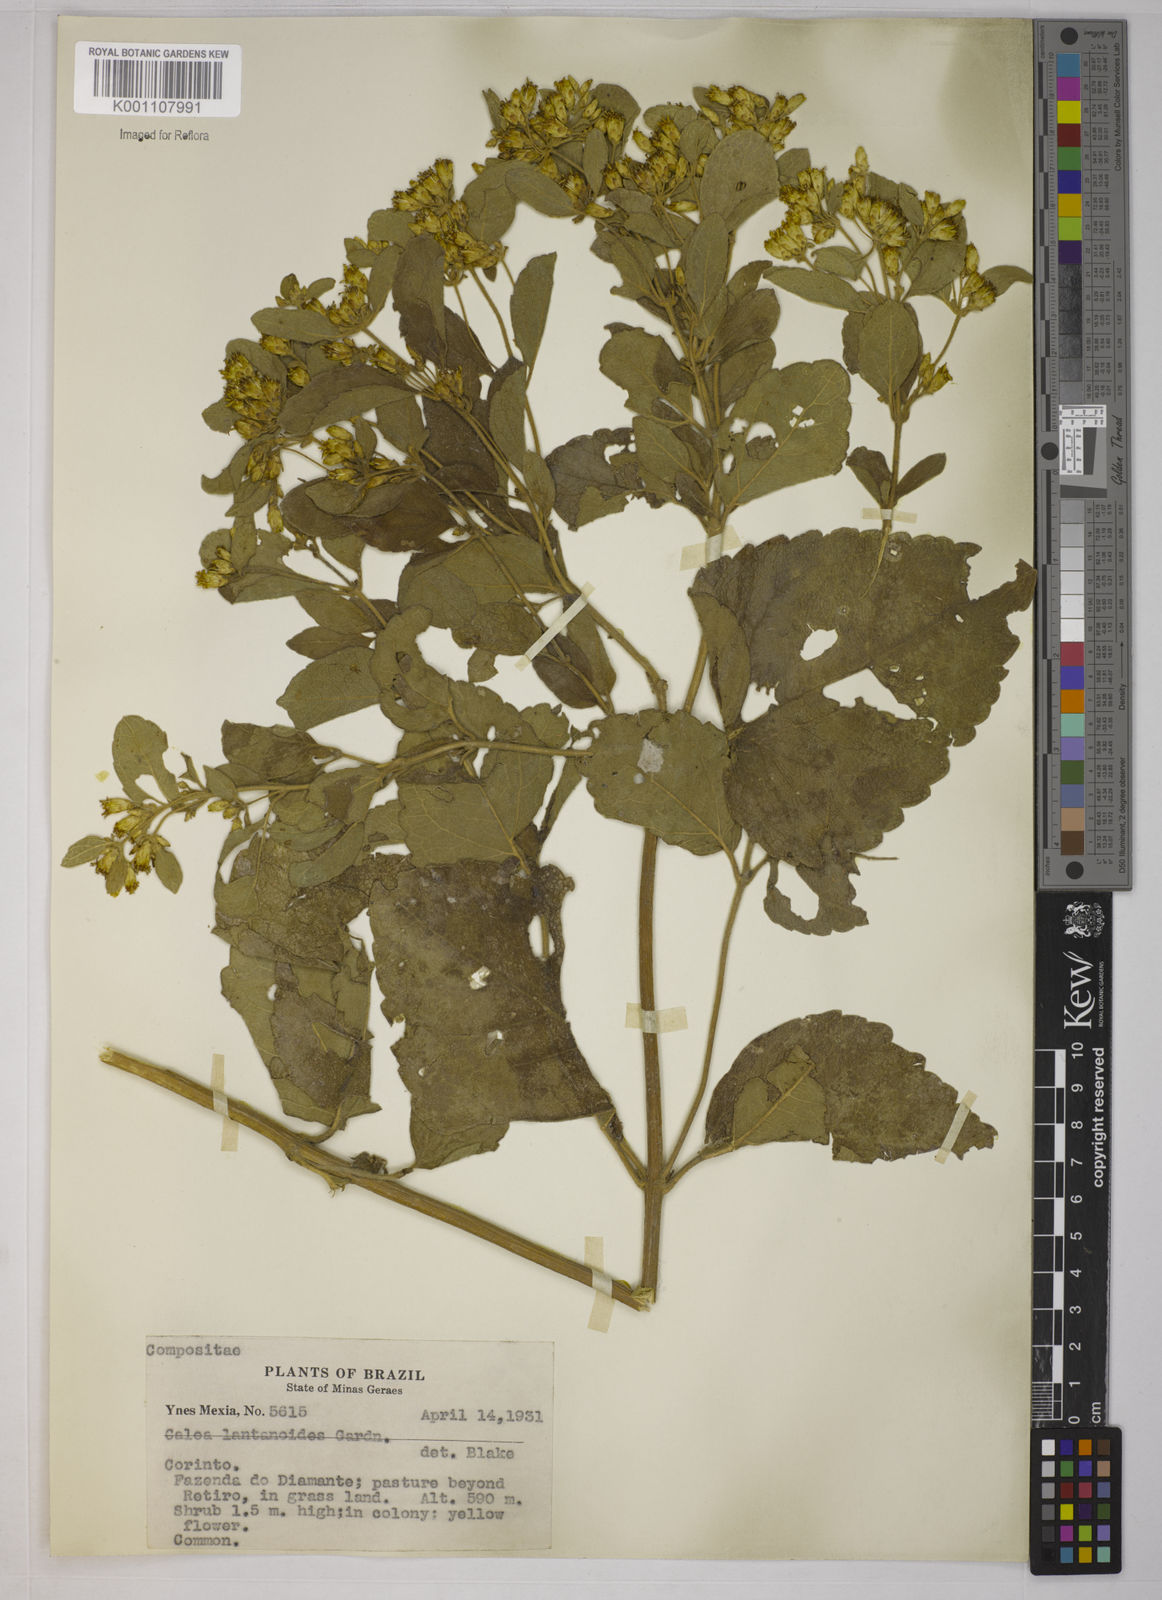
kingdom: Plantae
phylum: Tracheophyta
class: Magnoliopsida
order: Asterales
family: Asteraceae
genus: Calea
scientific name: Calea lantanoides
